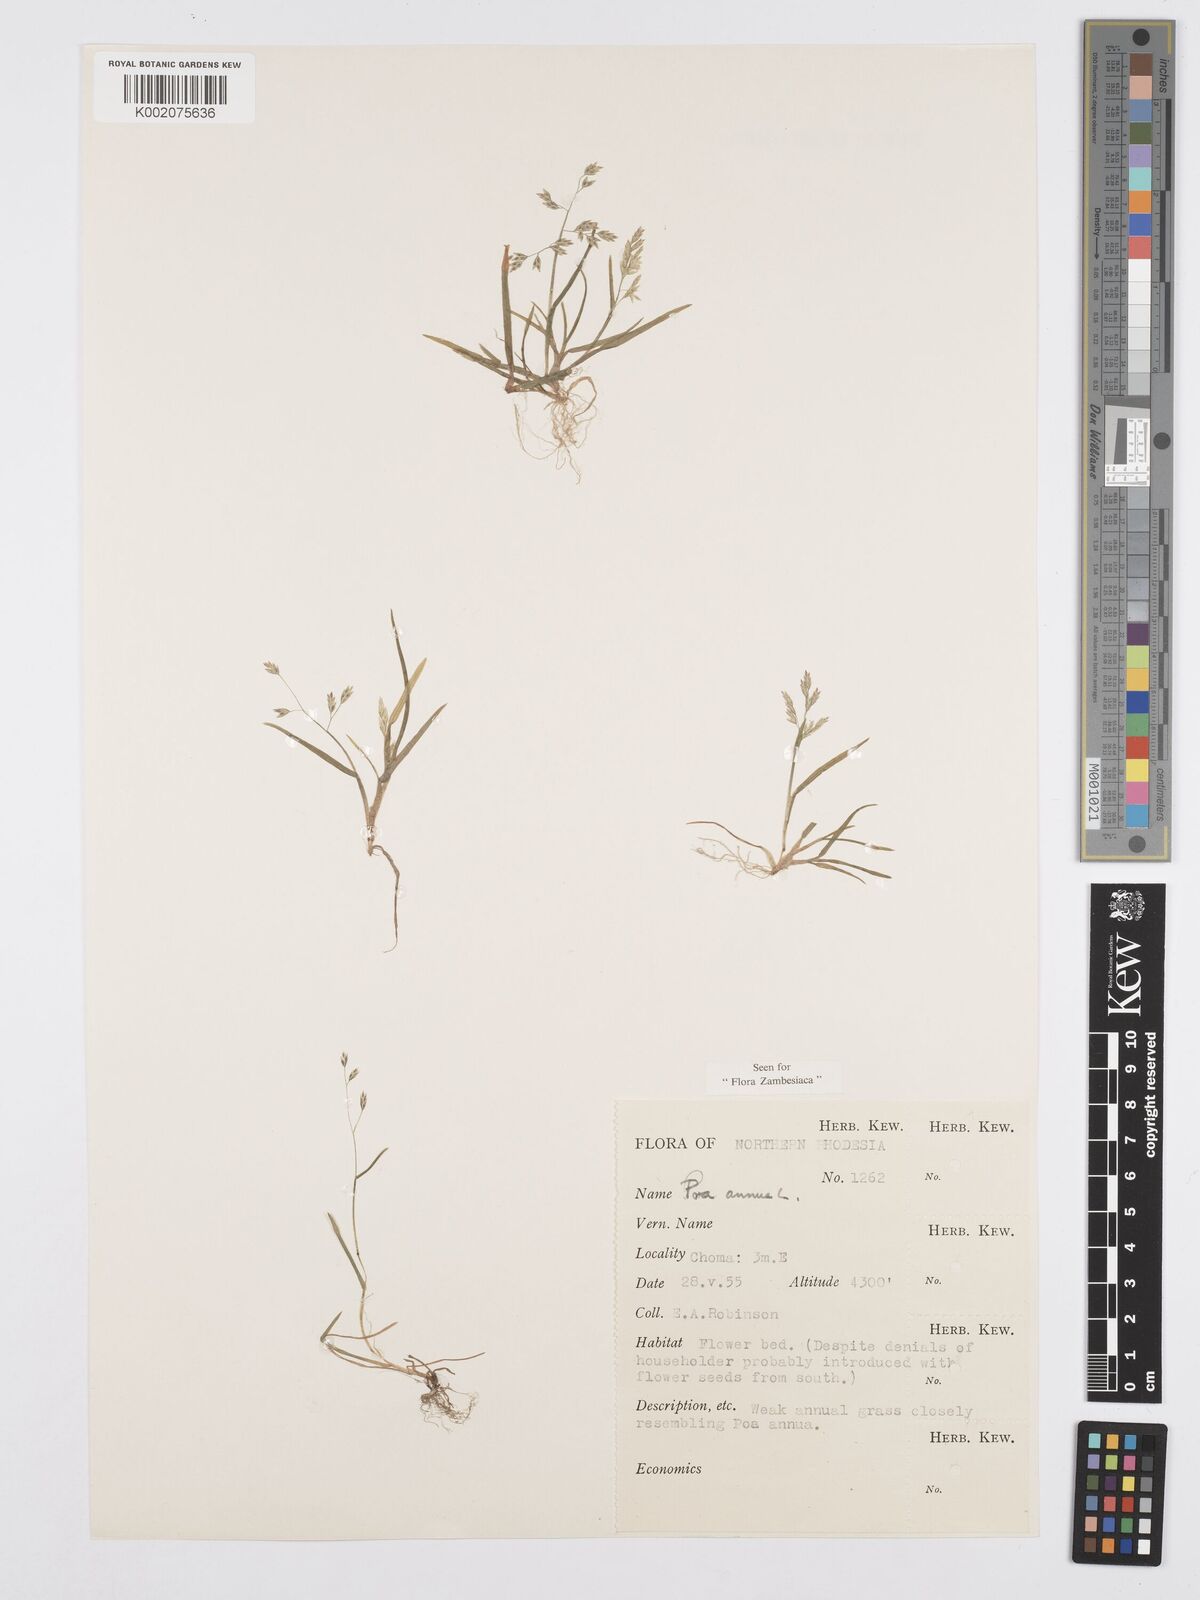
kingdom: Plantae
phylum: Tracheophyta
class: Liliopsida
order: Poales
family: Poaceae
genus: Poa
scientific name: Poa annua
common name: Annual bluegrass
